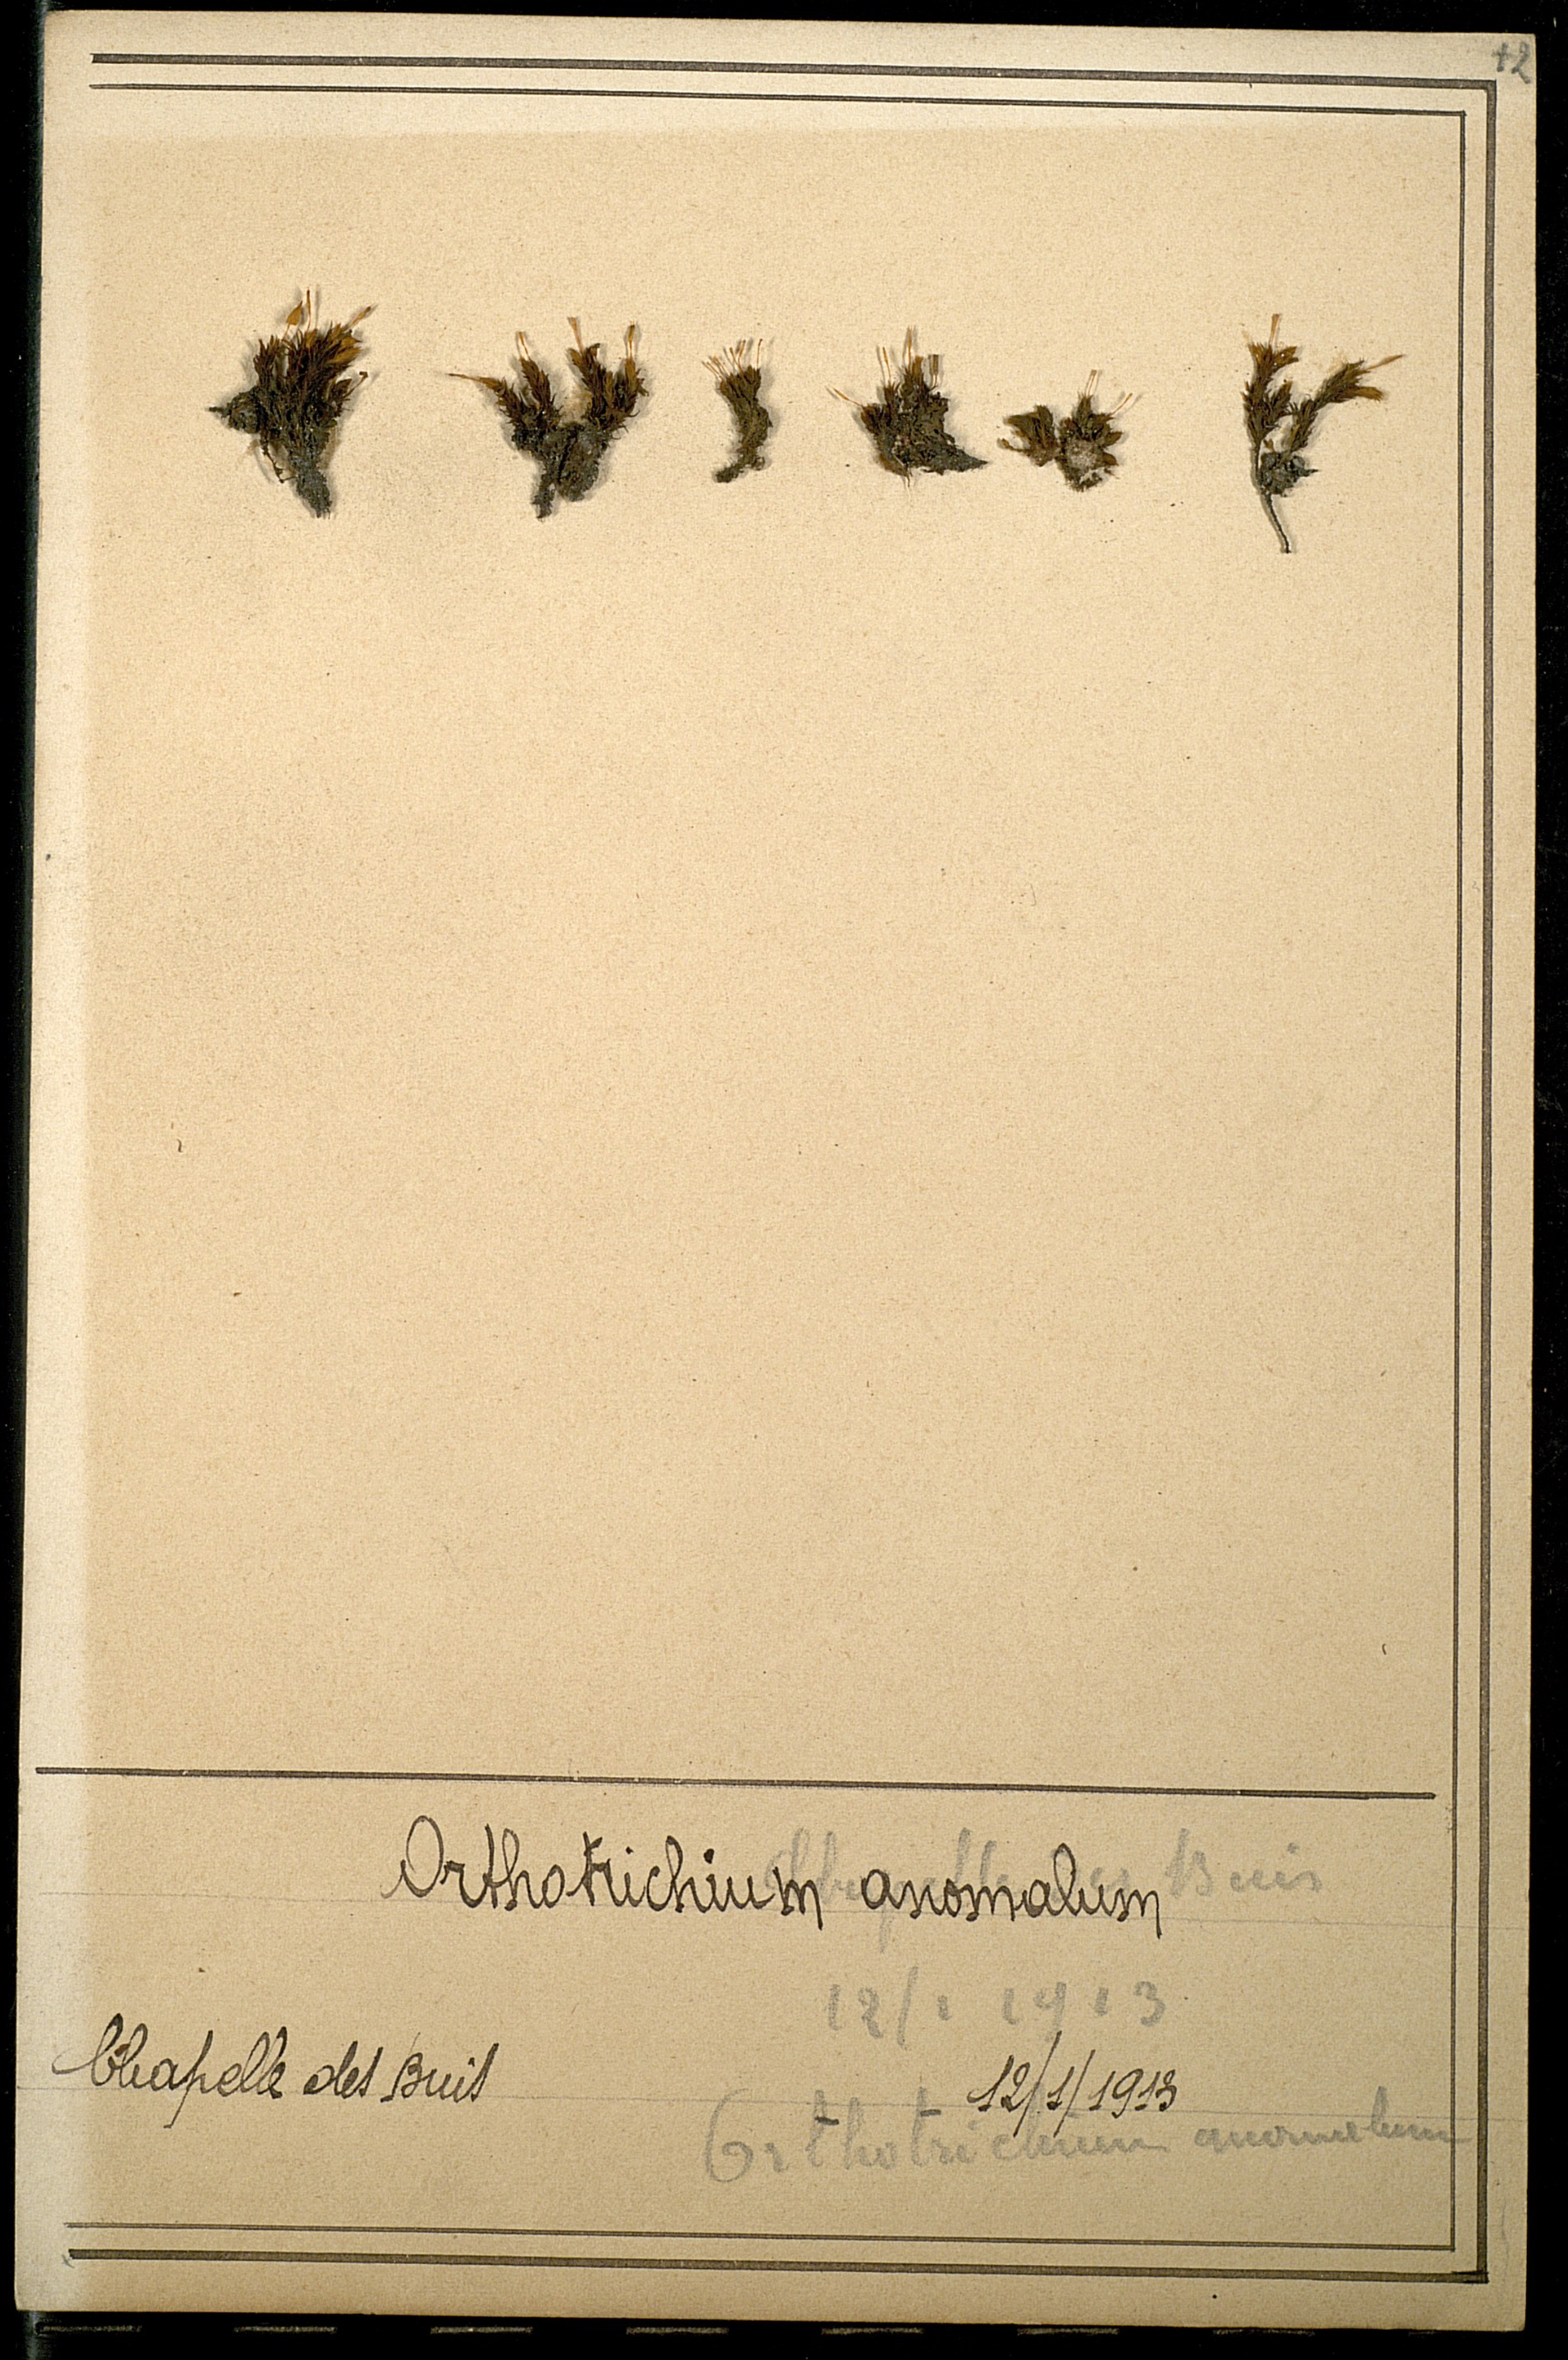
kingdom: Plantae
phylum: Bryophyta
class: Bryopsida
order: Orthotrichales
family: Orthotrichaceae
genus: Orthotrichum
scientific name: Orthotrichum anomalum
